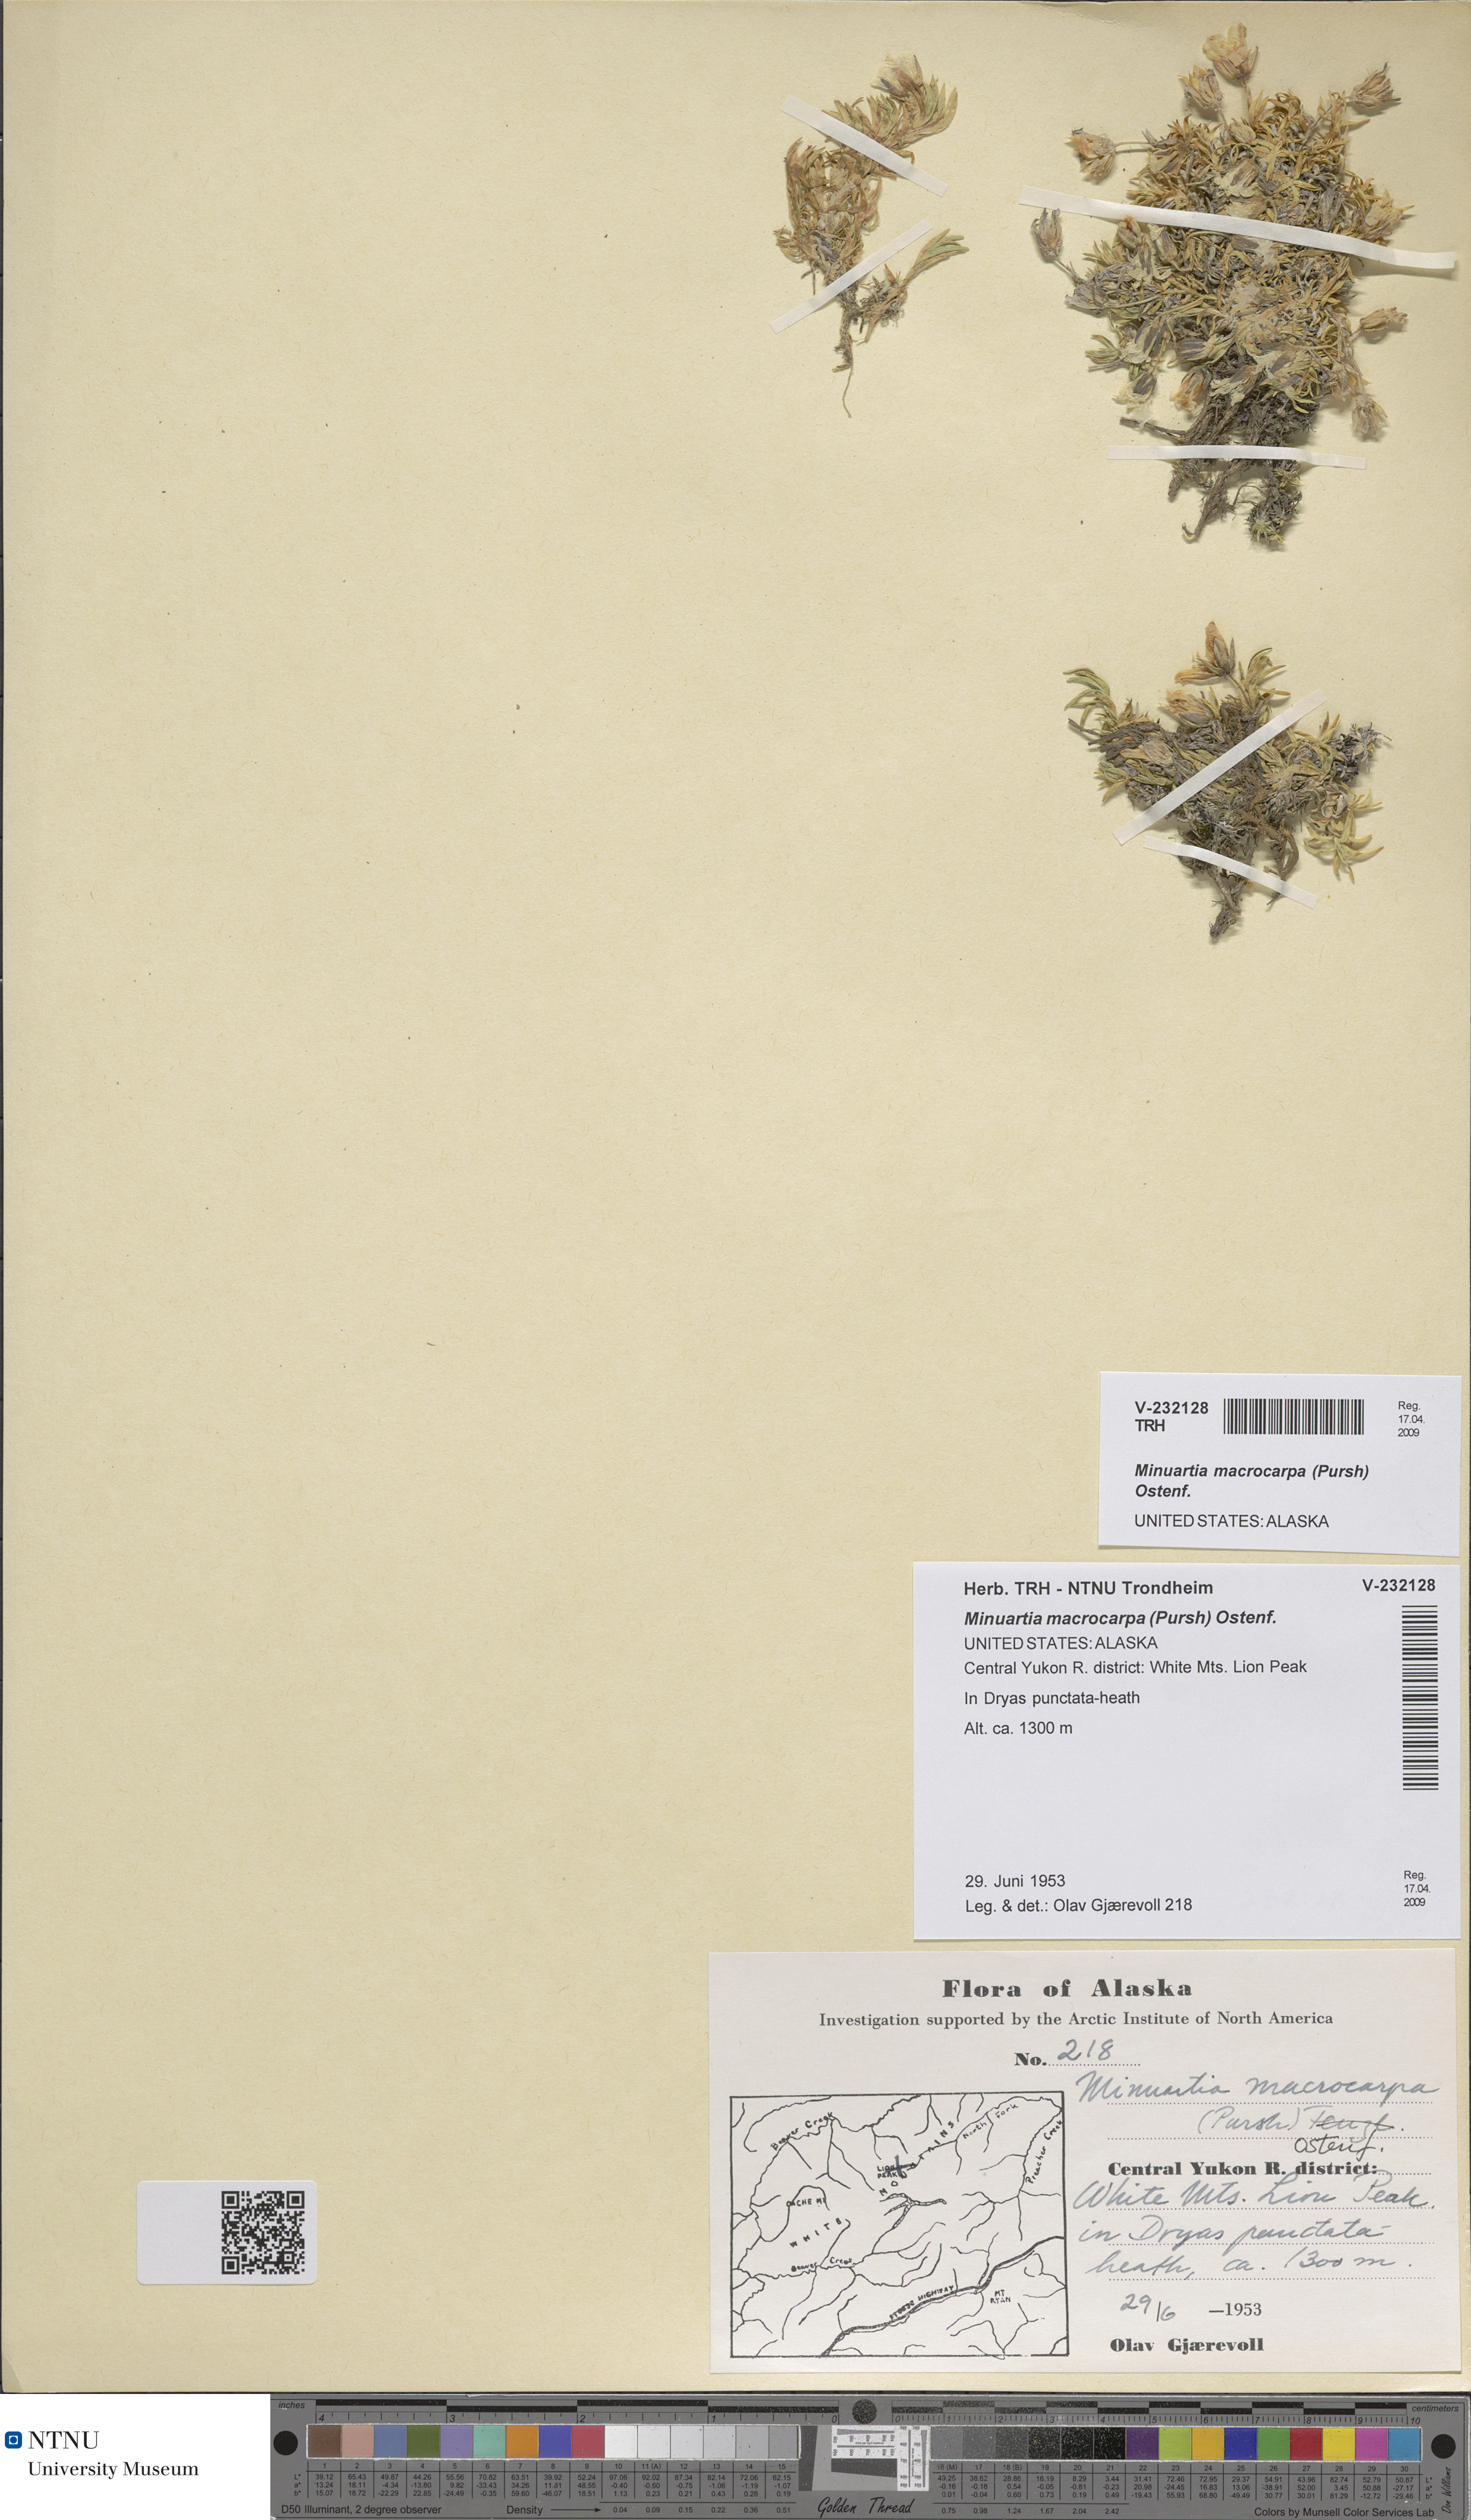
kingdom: Plantae
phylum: Tracheophyta
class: Magnoliopsida
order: Caryophyllales
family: Caryophyllaceae
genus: Pseudocherleria
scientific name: Pseudocherleria macrocarpa
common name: Large-fruit sandwort
